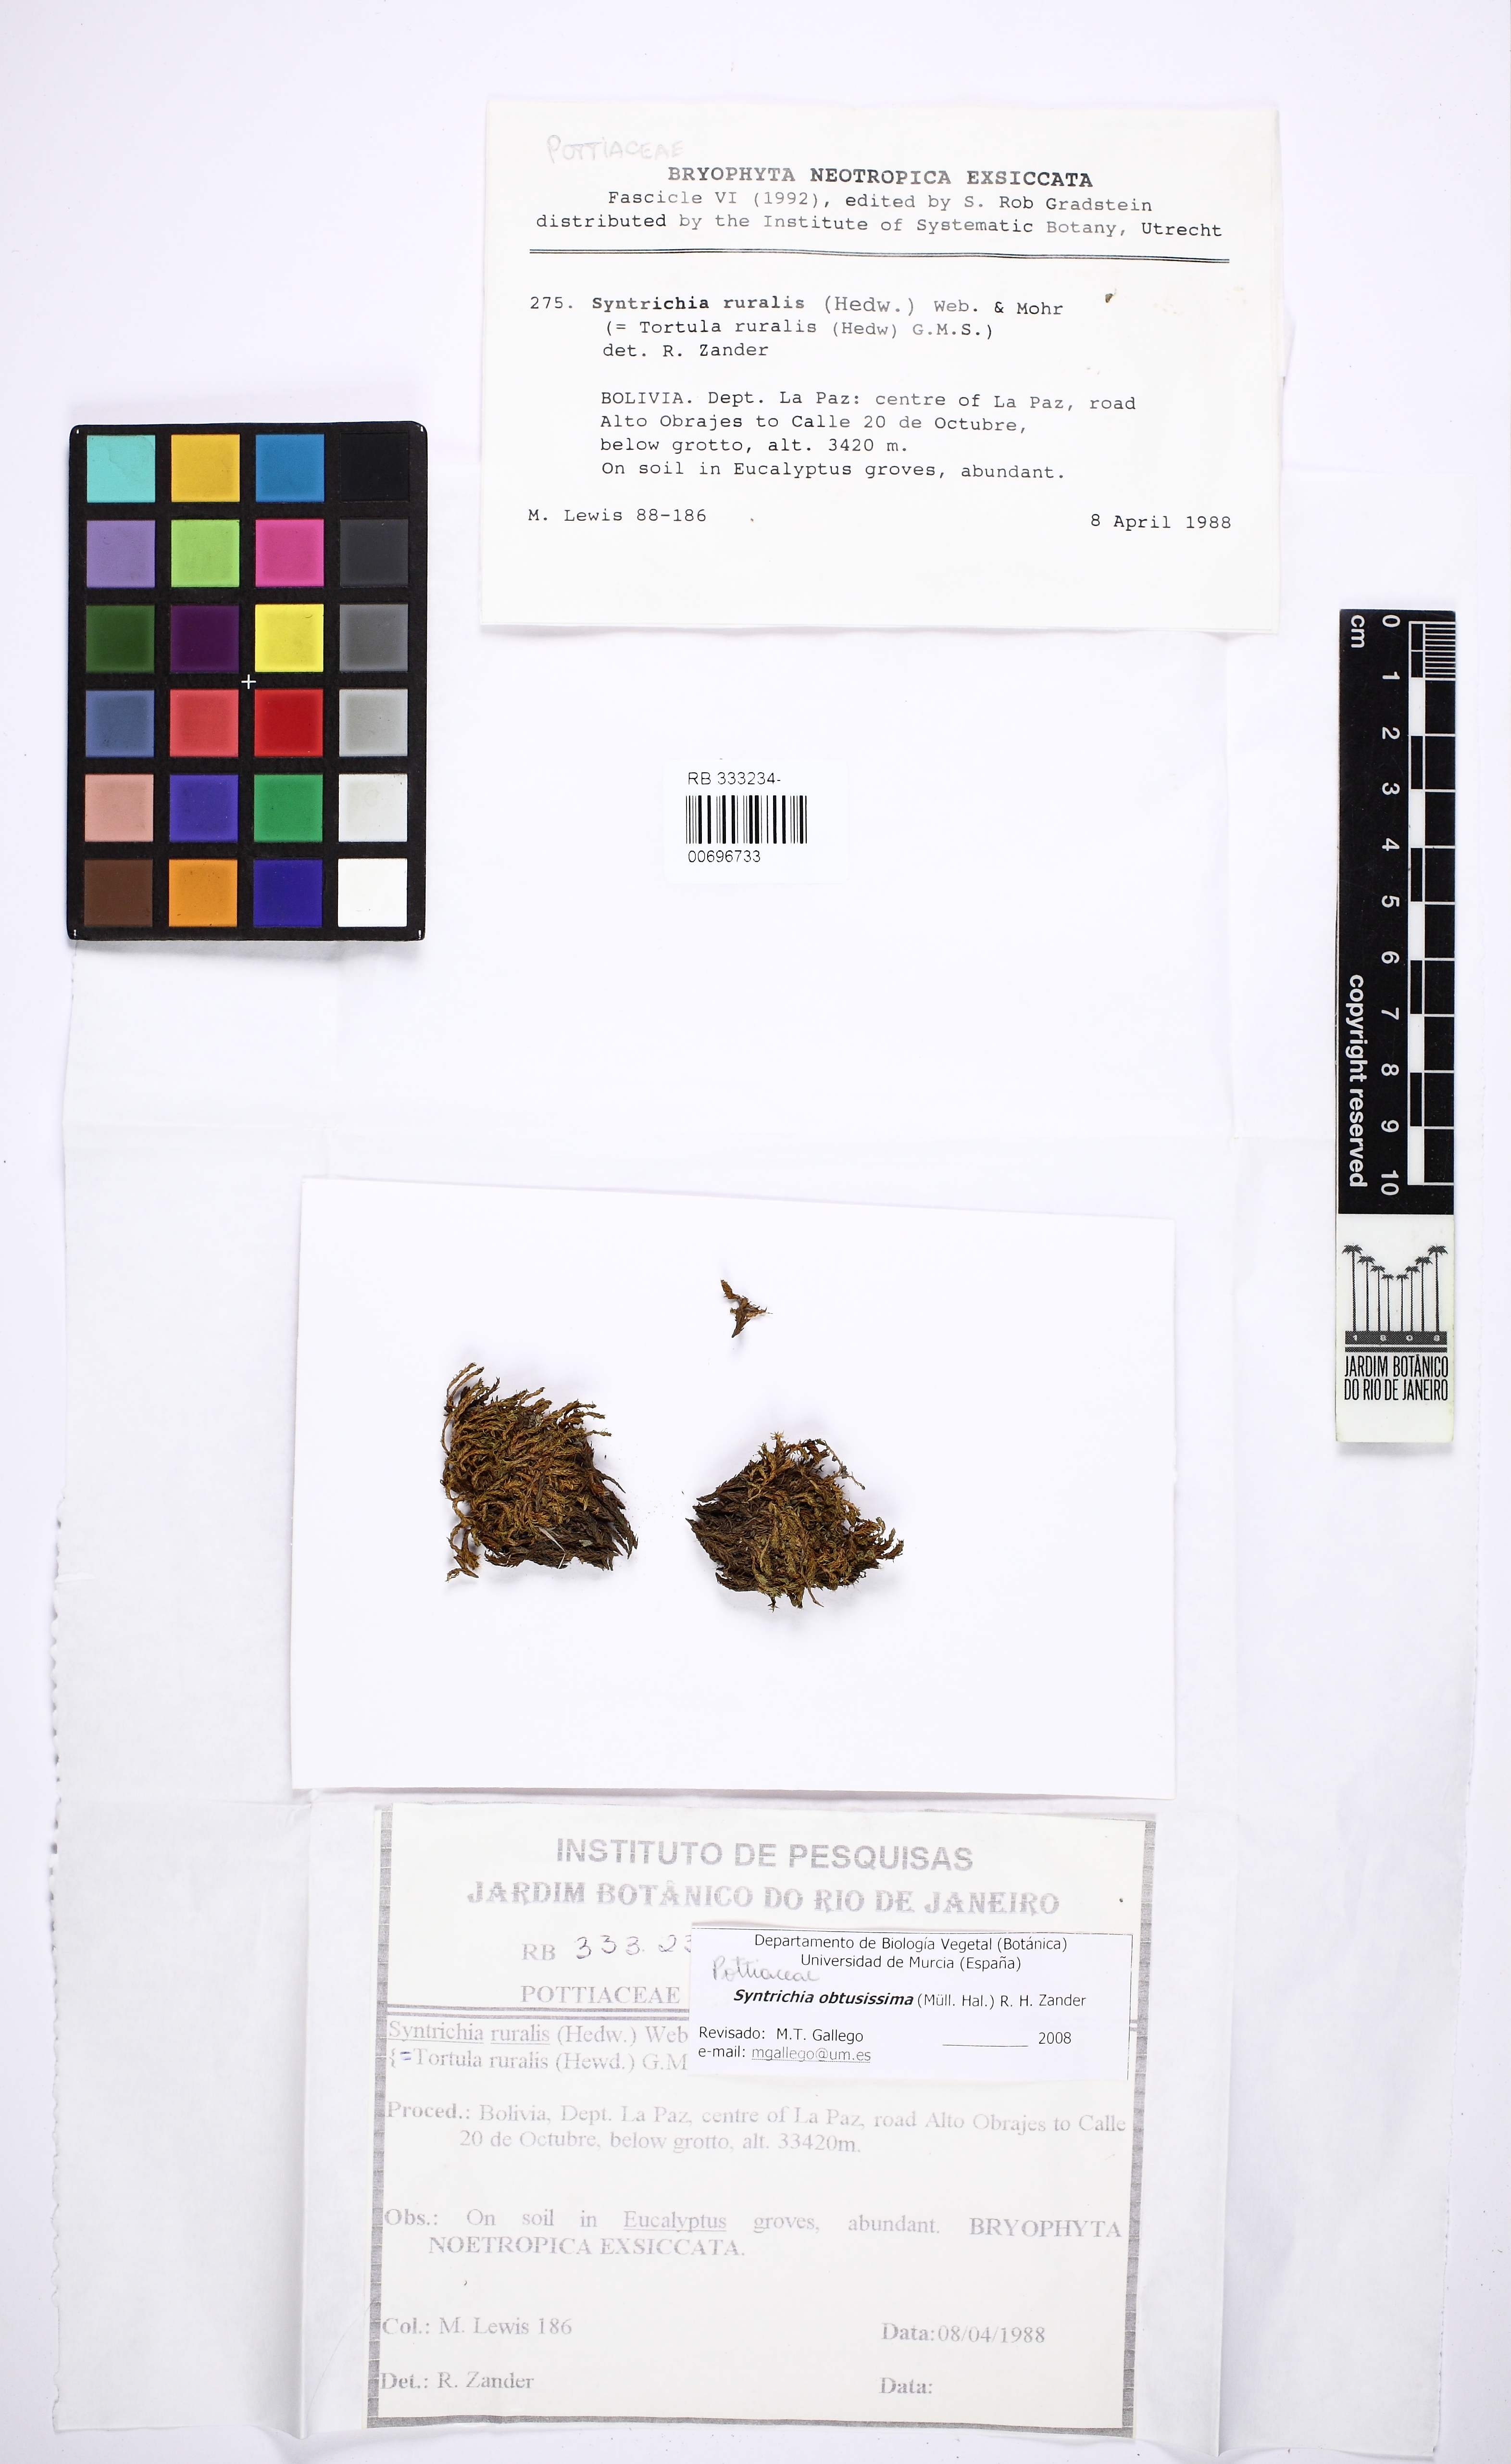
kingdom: Plantae
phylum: Bryophyta
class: Bryopsida
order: Pottiales
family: Pottiaceae
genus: Syntrichia
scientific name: Syntrichia obtusissima
